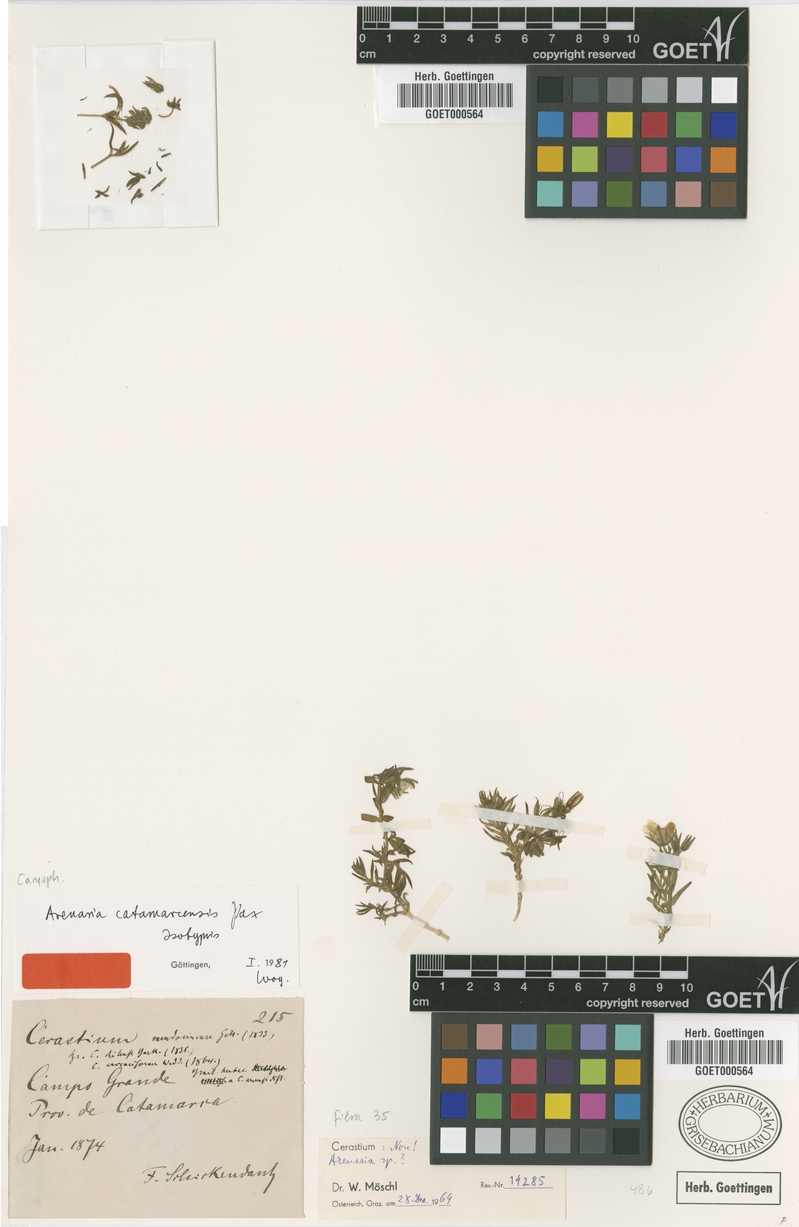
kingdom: Plantae
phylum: Tracheophyta
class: Magnoliopsida
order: Caryophyllales
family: Caryophyllaceae
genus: Arenaria
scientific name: Arenaria catamarcensis
